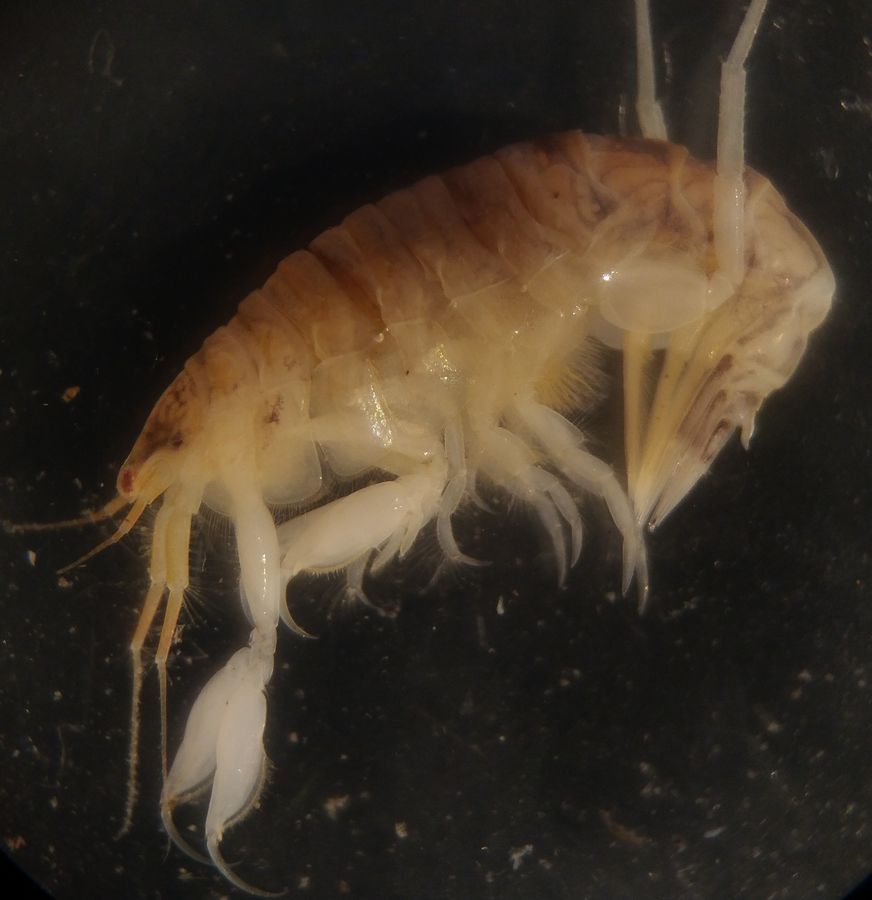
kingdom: Animalia
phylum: Arthropoda
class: Malacostraca
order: Amphipoda
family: Oedicerotidae
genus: Paroediceros
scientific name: Paroediceros lynceus
